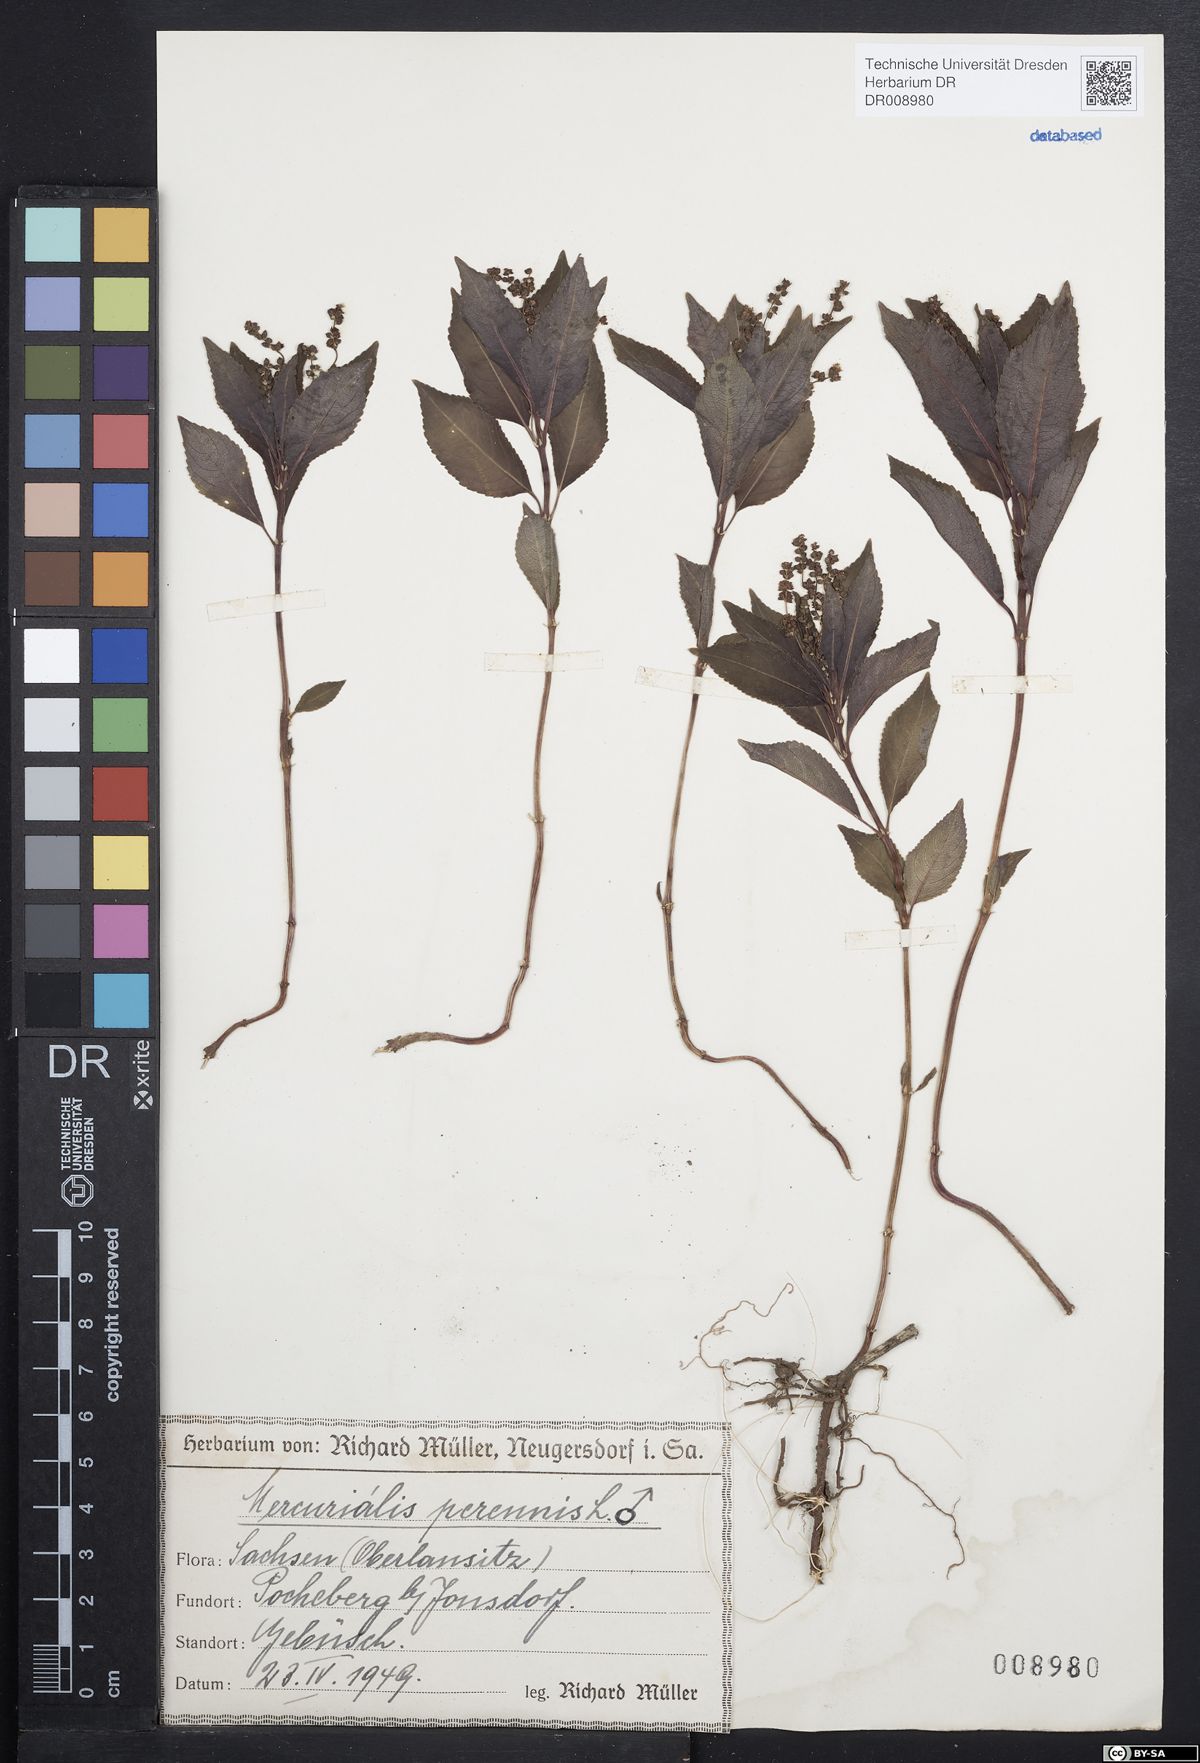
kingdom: Plantae
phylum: Tracheophyta
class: Magnoliopsida
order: Malpighiales
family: Euphorbiaceae
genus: Mercurialis
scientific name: Mercurialis perennis
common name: Dog mercury
